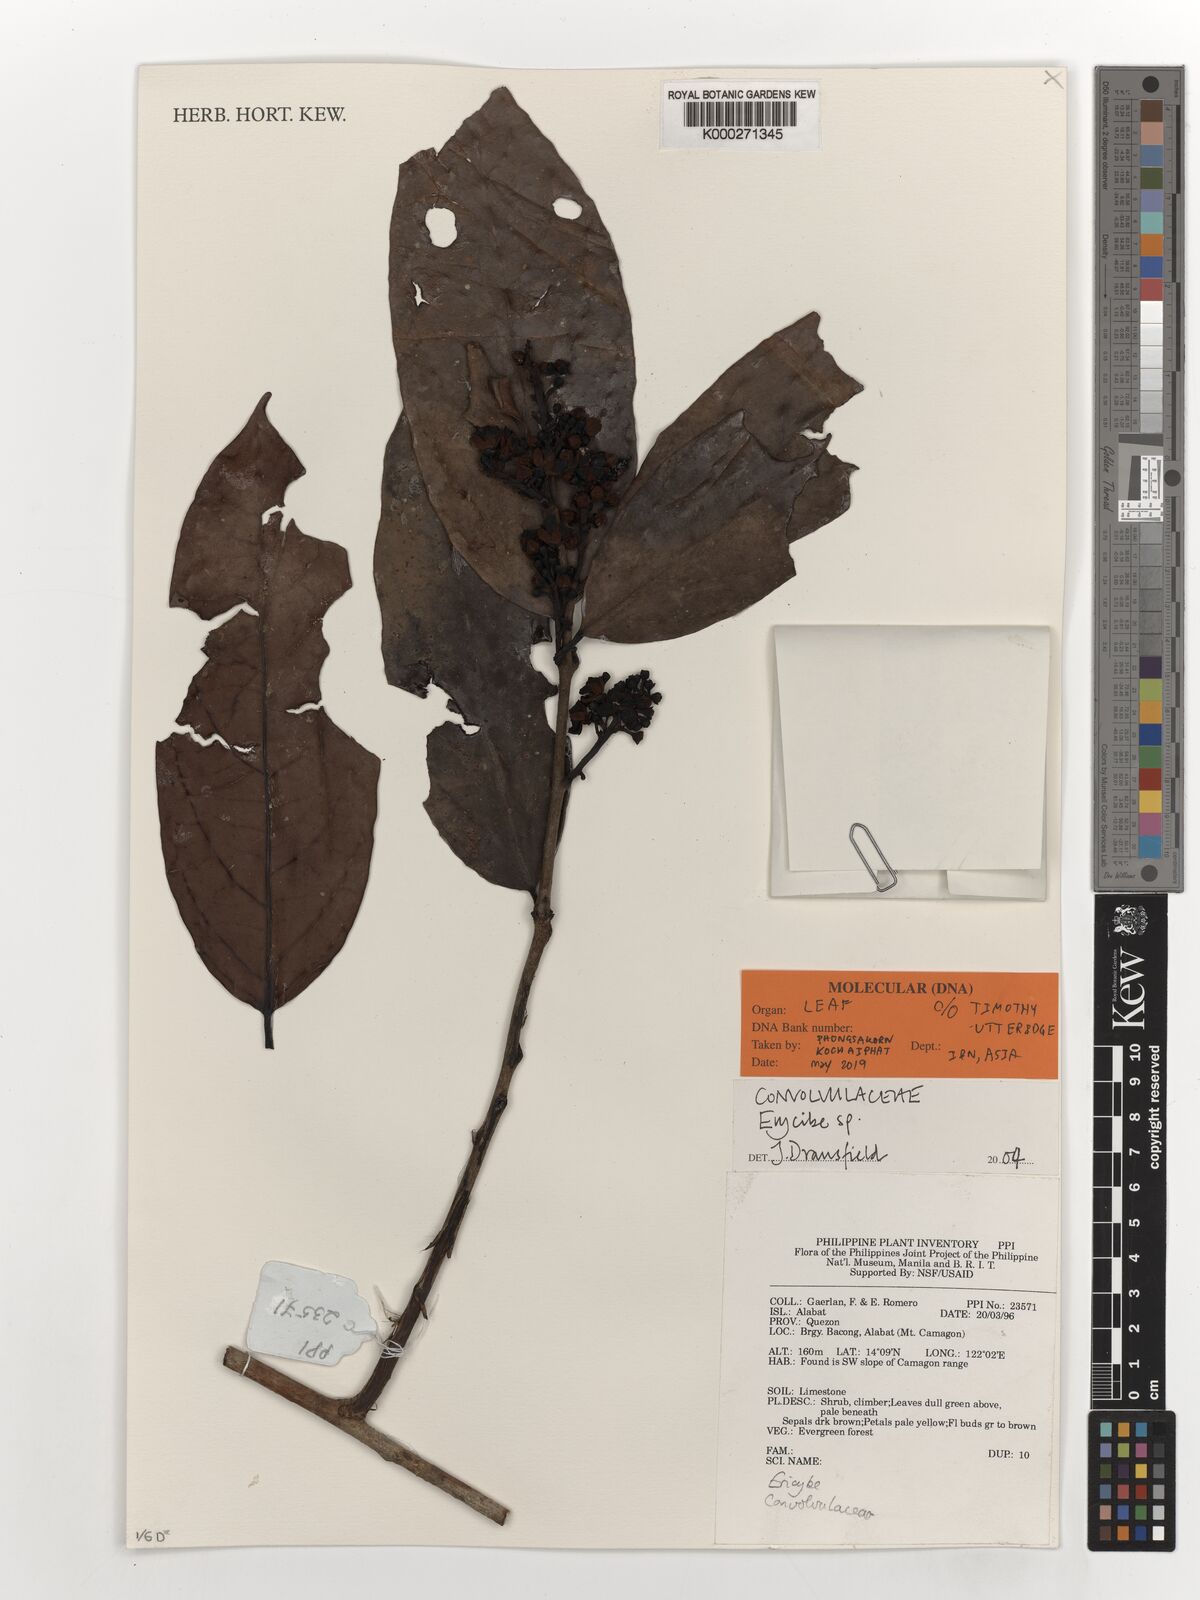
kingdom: Plantae
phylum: Tracheophyta
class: Magnoliopsida
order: Solanales
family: Convolvulaceae
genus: Erycibe
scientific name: Erycibe
